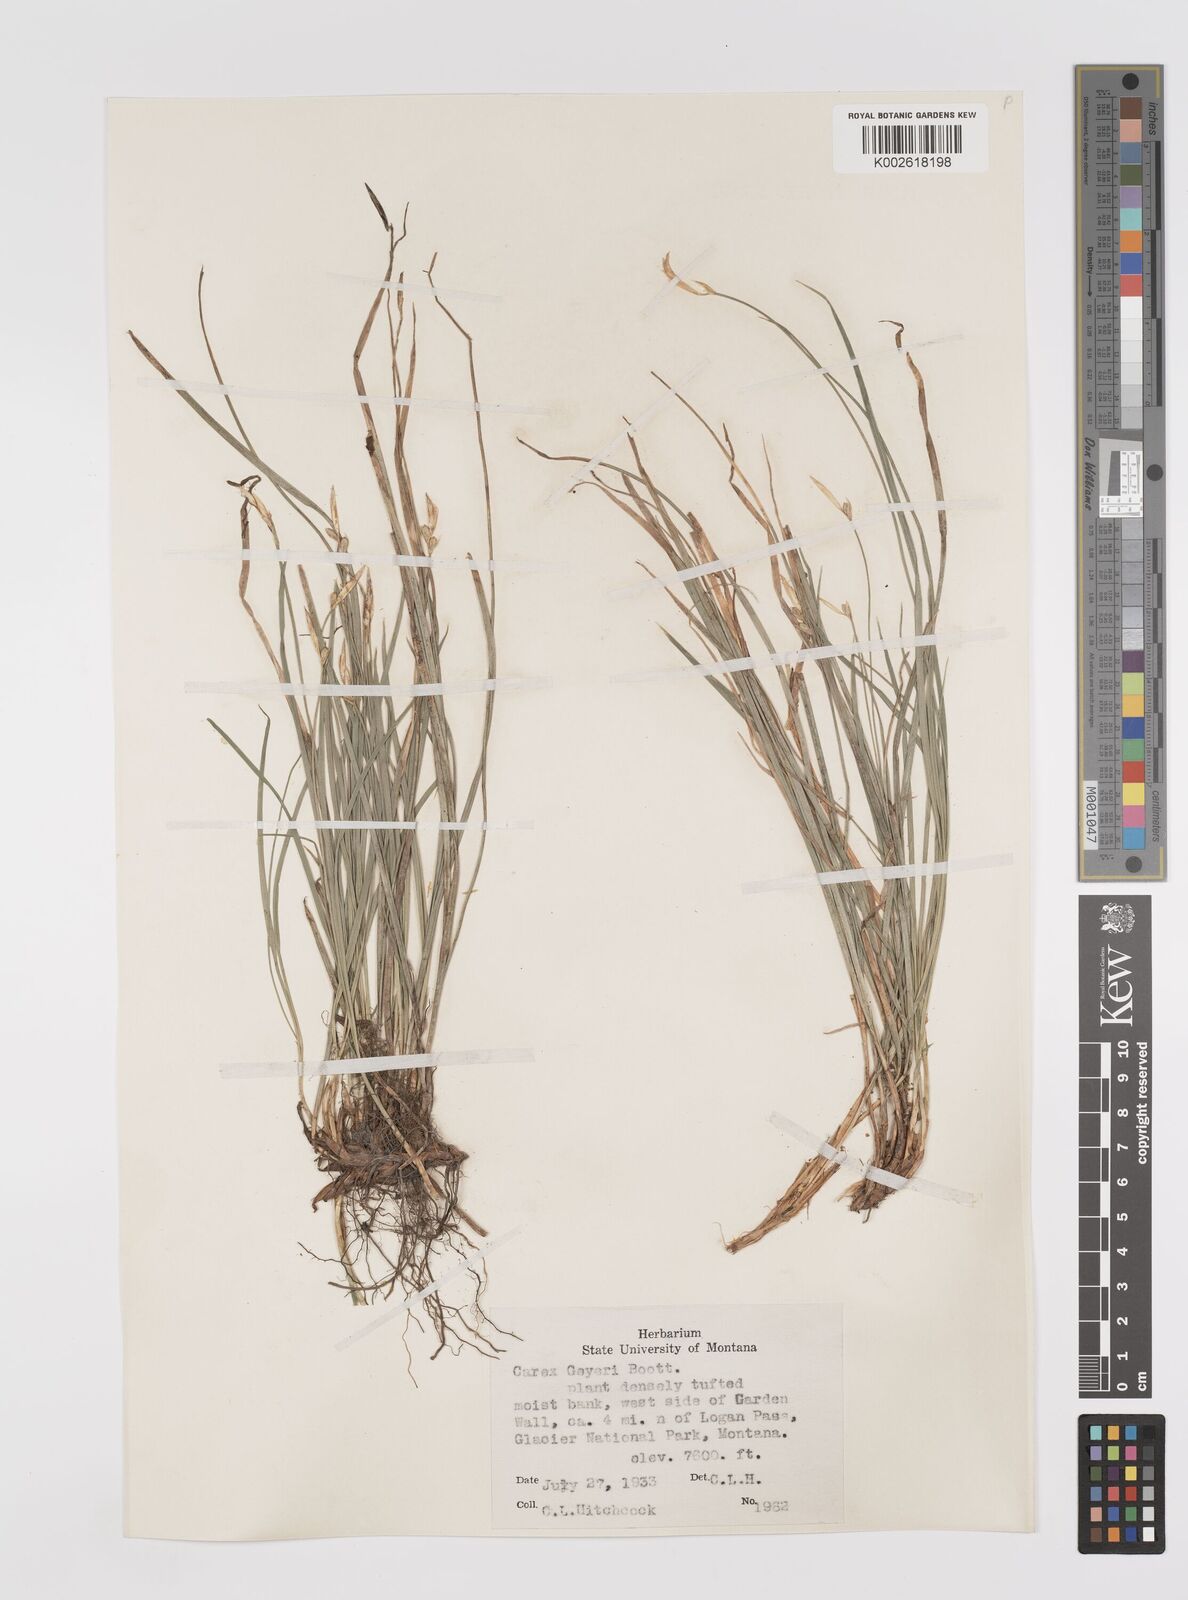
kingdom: Plantae
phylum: Tracheophyta
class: Liliopsida
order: Poales
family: Cyperaceae
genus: Carex
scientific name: Carex geyeri
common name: Elk sedge
